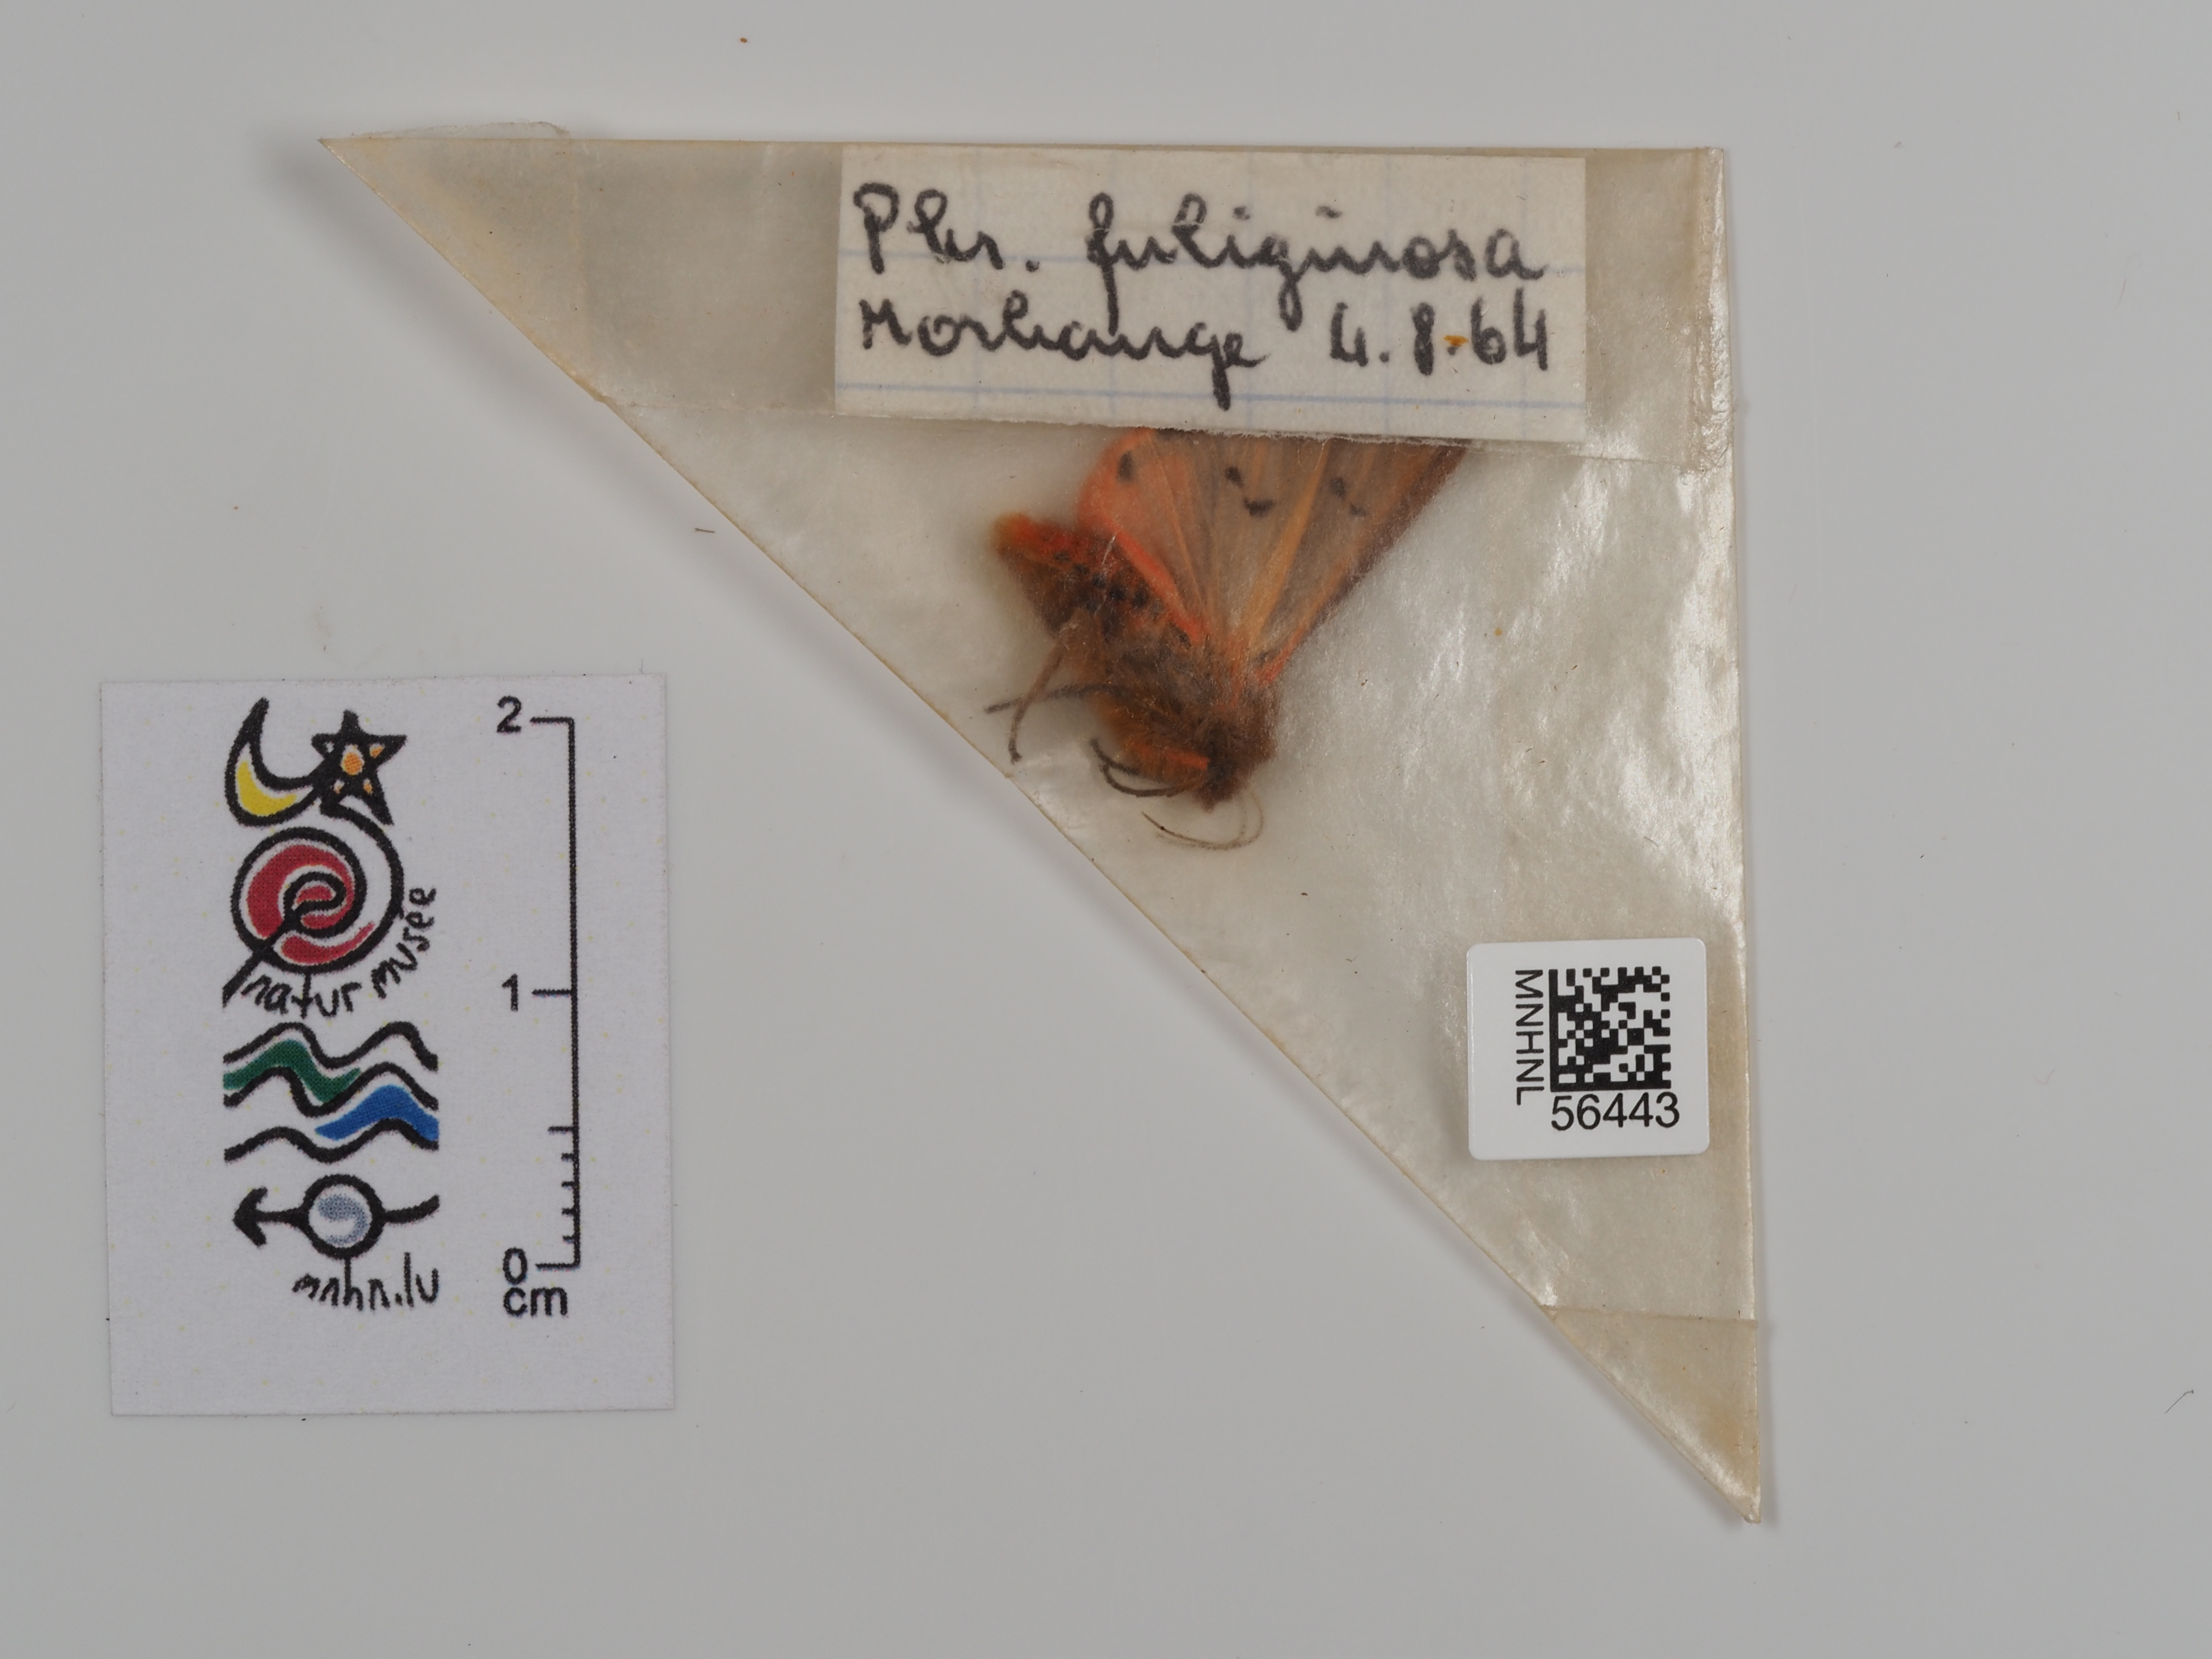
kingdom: Animalia
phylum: Arthropoda
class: Insecta
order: Lepidoptera
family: Erebidae
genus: Phragmatobia
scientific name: Phragmatobia fuliginosa
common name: Ruby tiger
